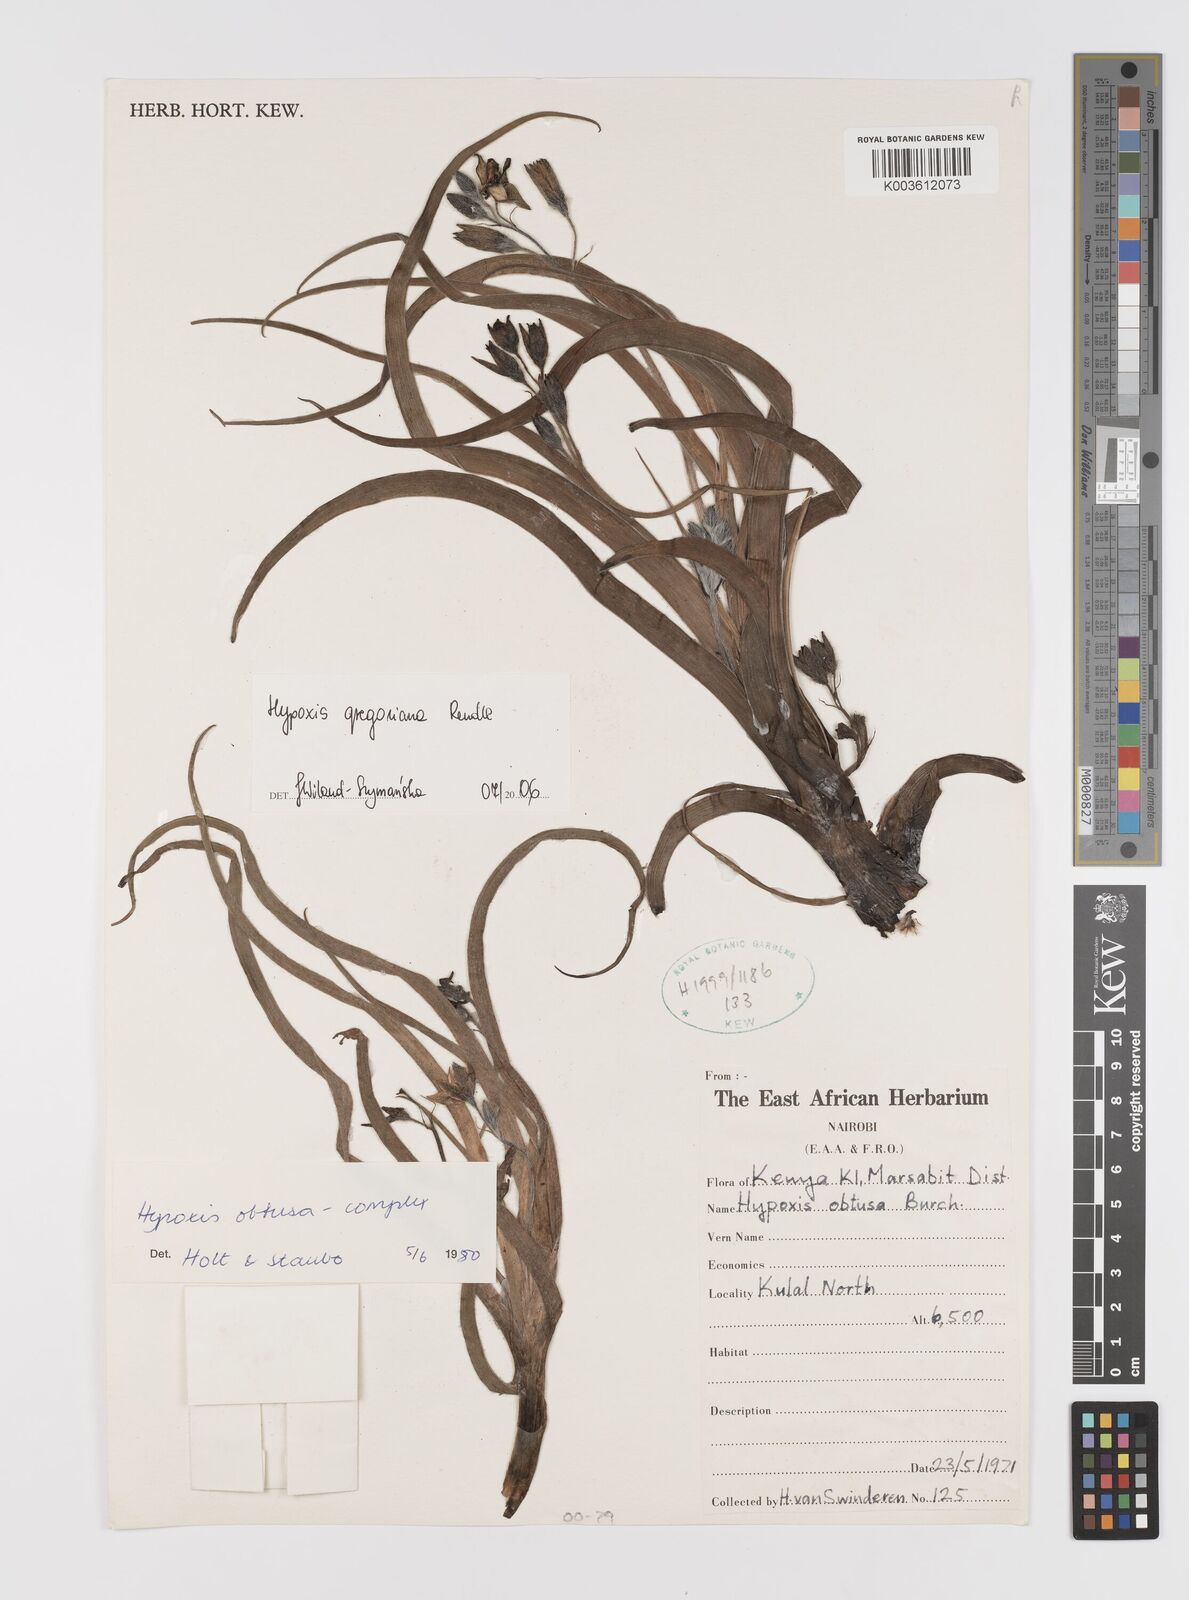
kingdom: Plantae
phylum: Tracheophyta
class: Liliopsida
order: Asparagales
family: Hypoxidaceae
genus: Hypoxis
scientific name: Hypoxis gregoriana
